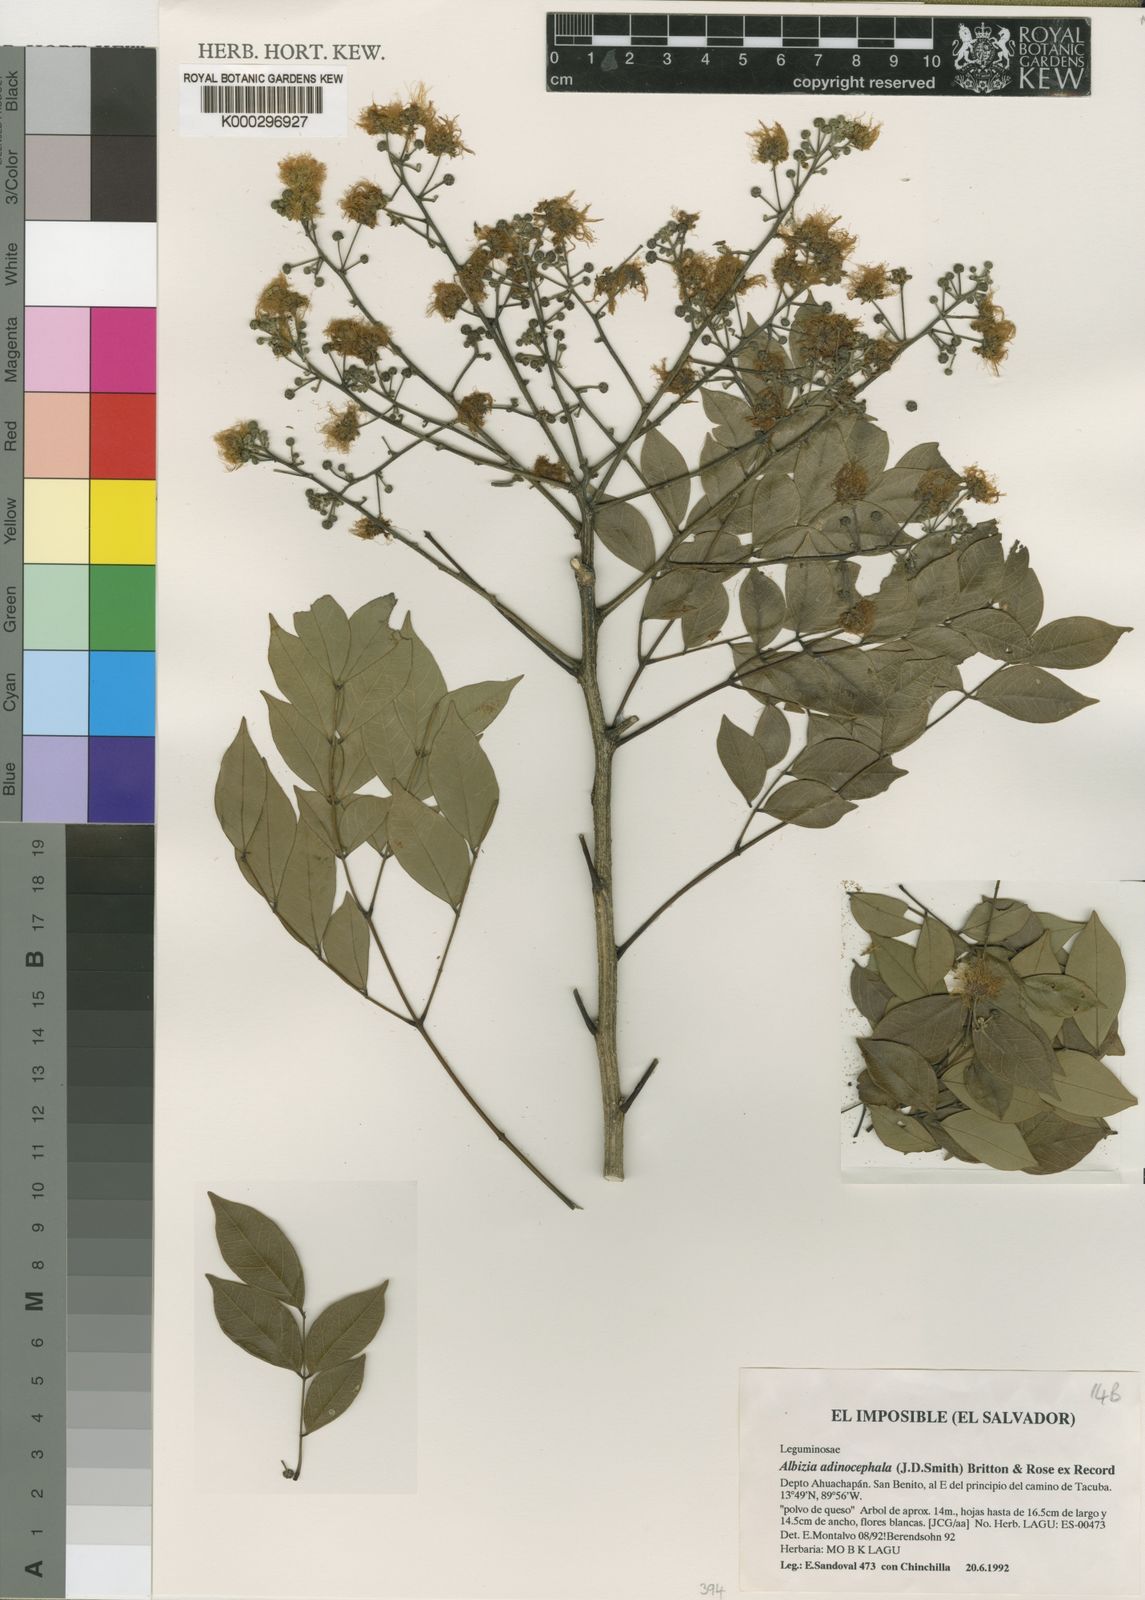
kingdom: Plantae
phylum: Tracheophyta
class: Magnoliopsida
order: Fabales
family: Fabaceae
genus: Albizia
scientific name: Albizia adinocephala
